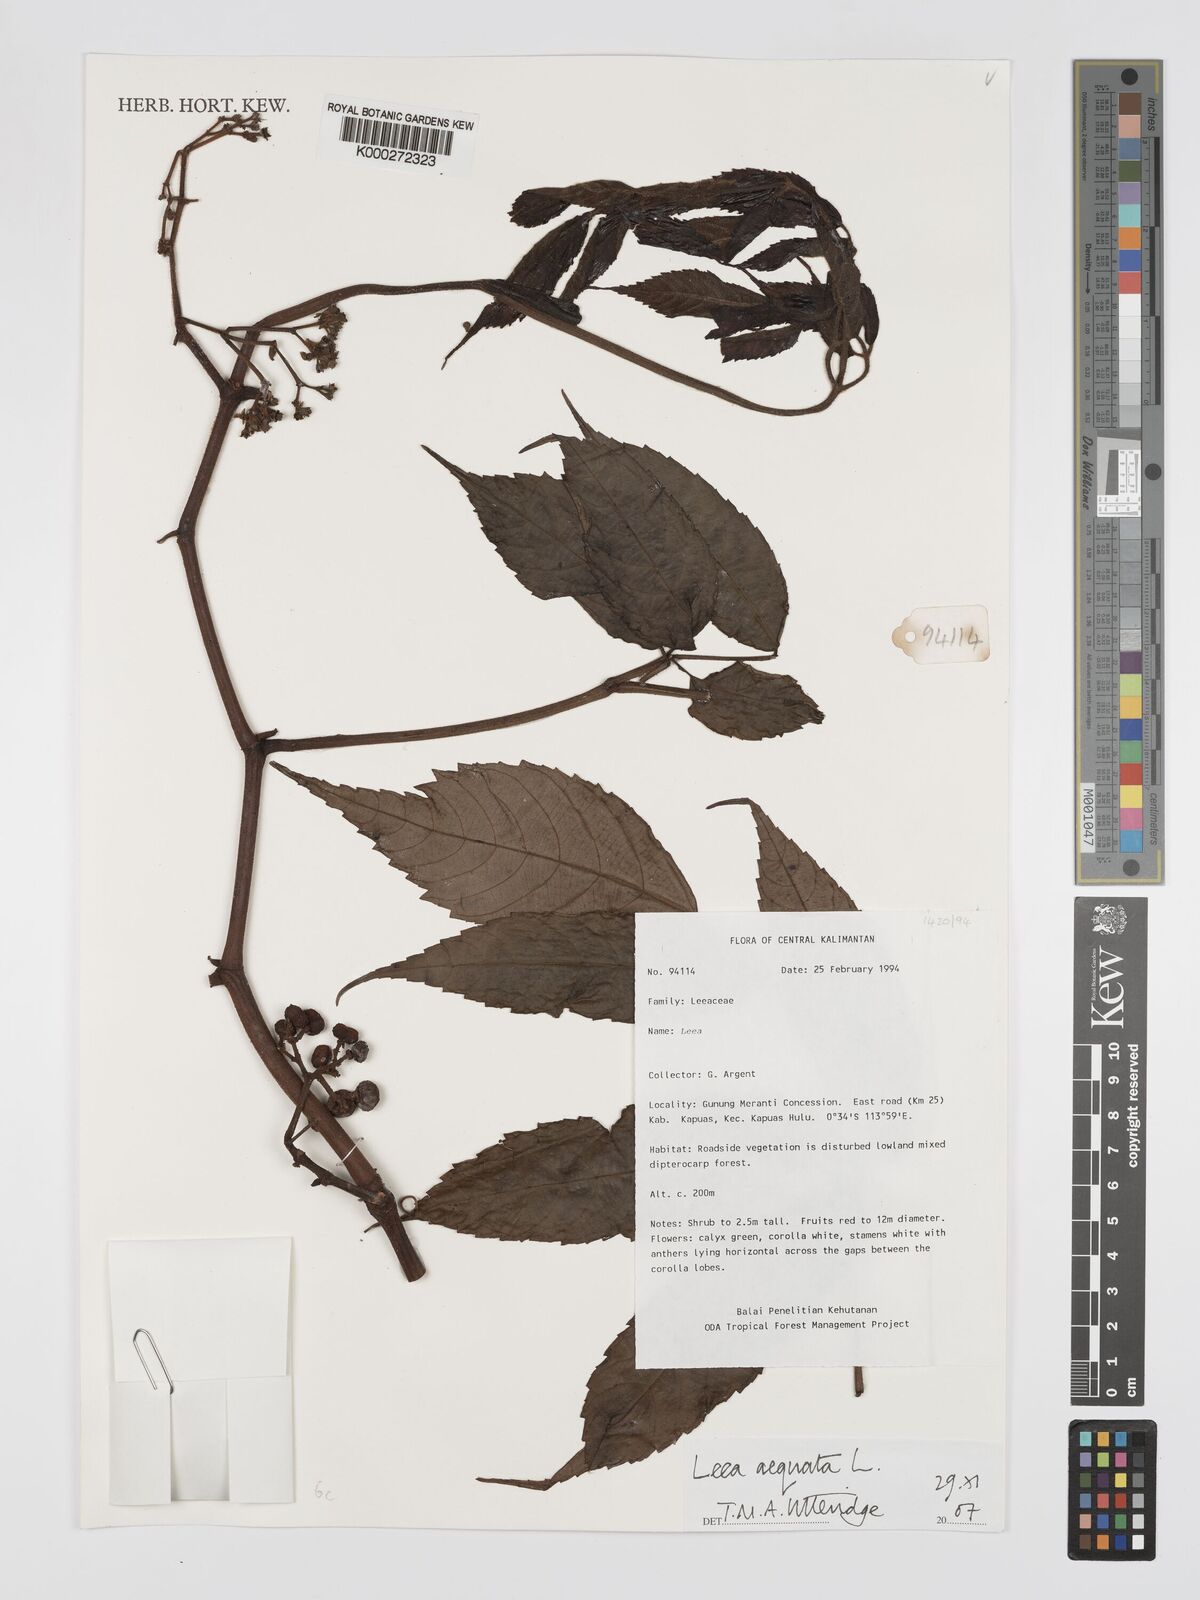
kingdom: Plantae
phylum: Tracheophyta
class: Magnoliopsida
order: Vitales
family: Vitaceae
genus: Leea
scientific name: Leea aequata
